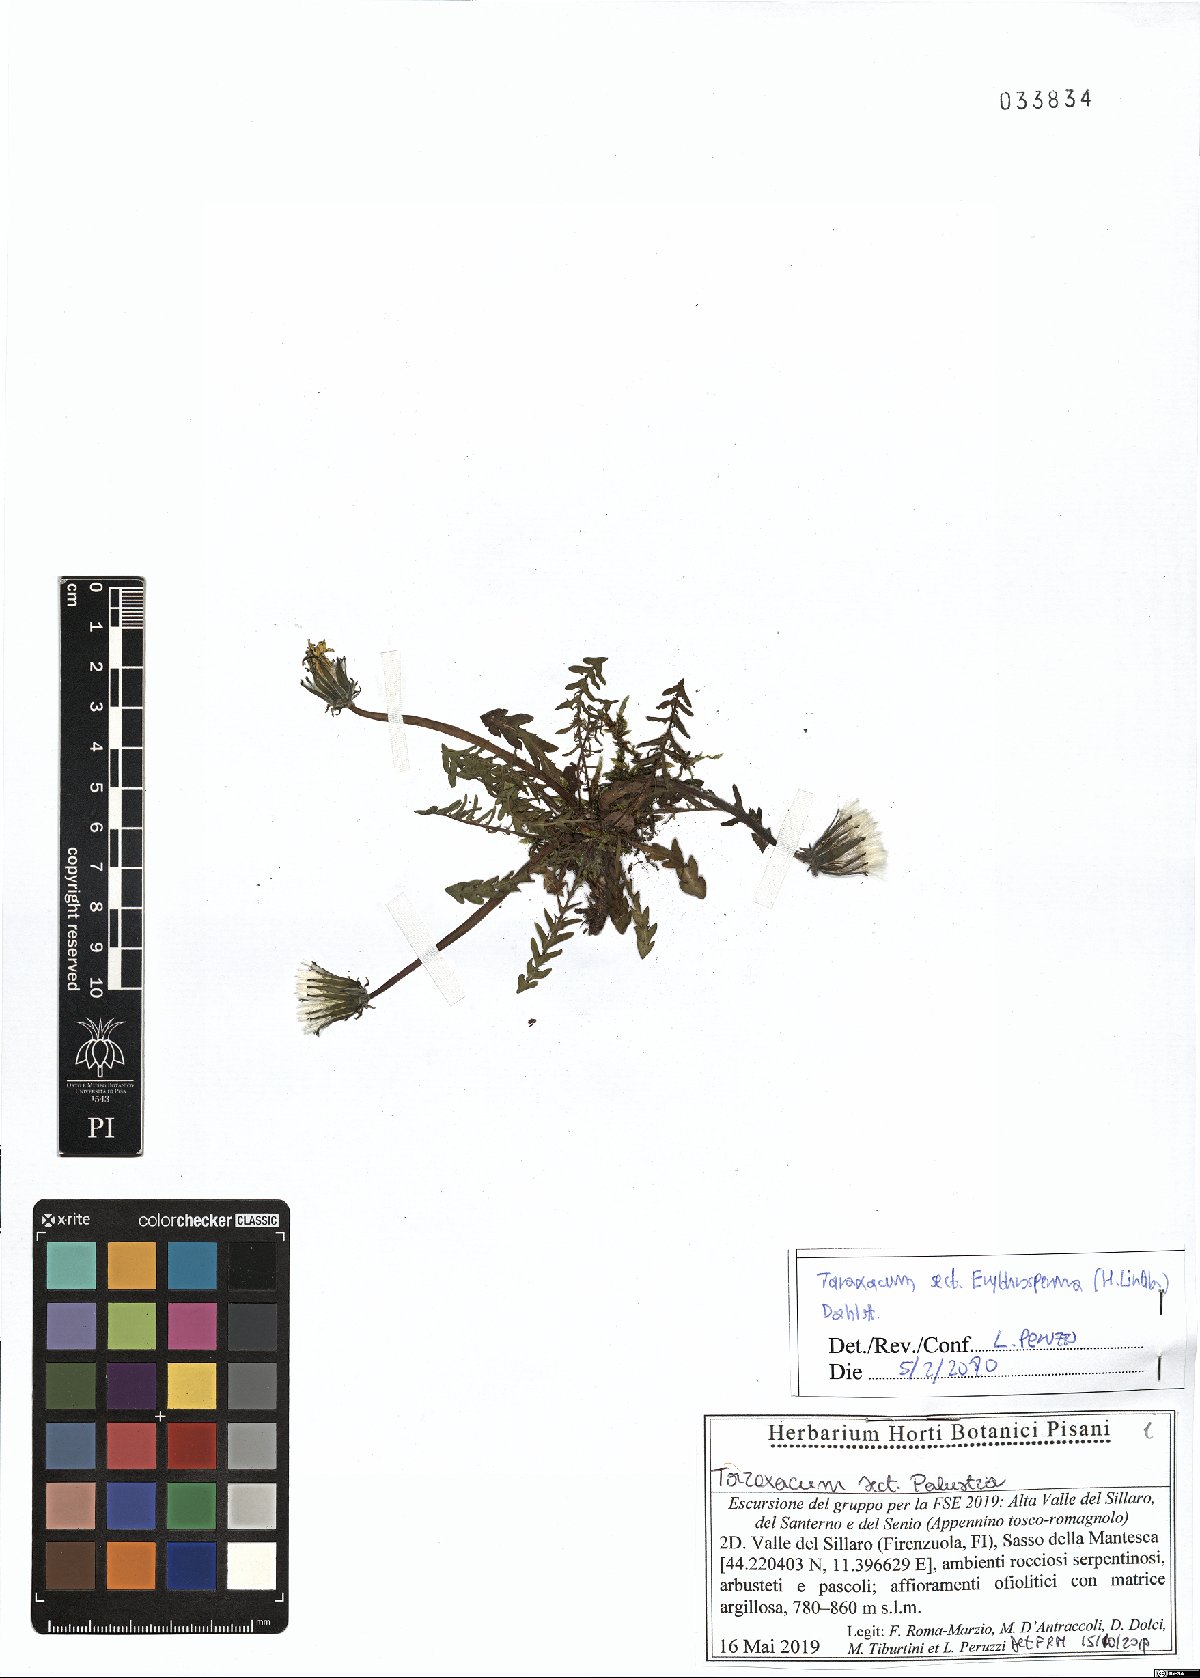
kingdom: Plantae
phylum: Tracheophyta
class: Magnoliopsida
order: Asterales
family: Asteraceae
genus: Taraxacum
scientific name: Taraxacum erythrospermum
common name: Rock dandelion
